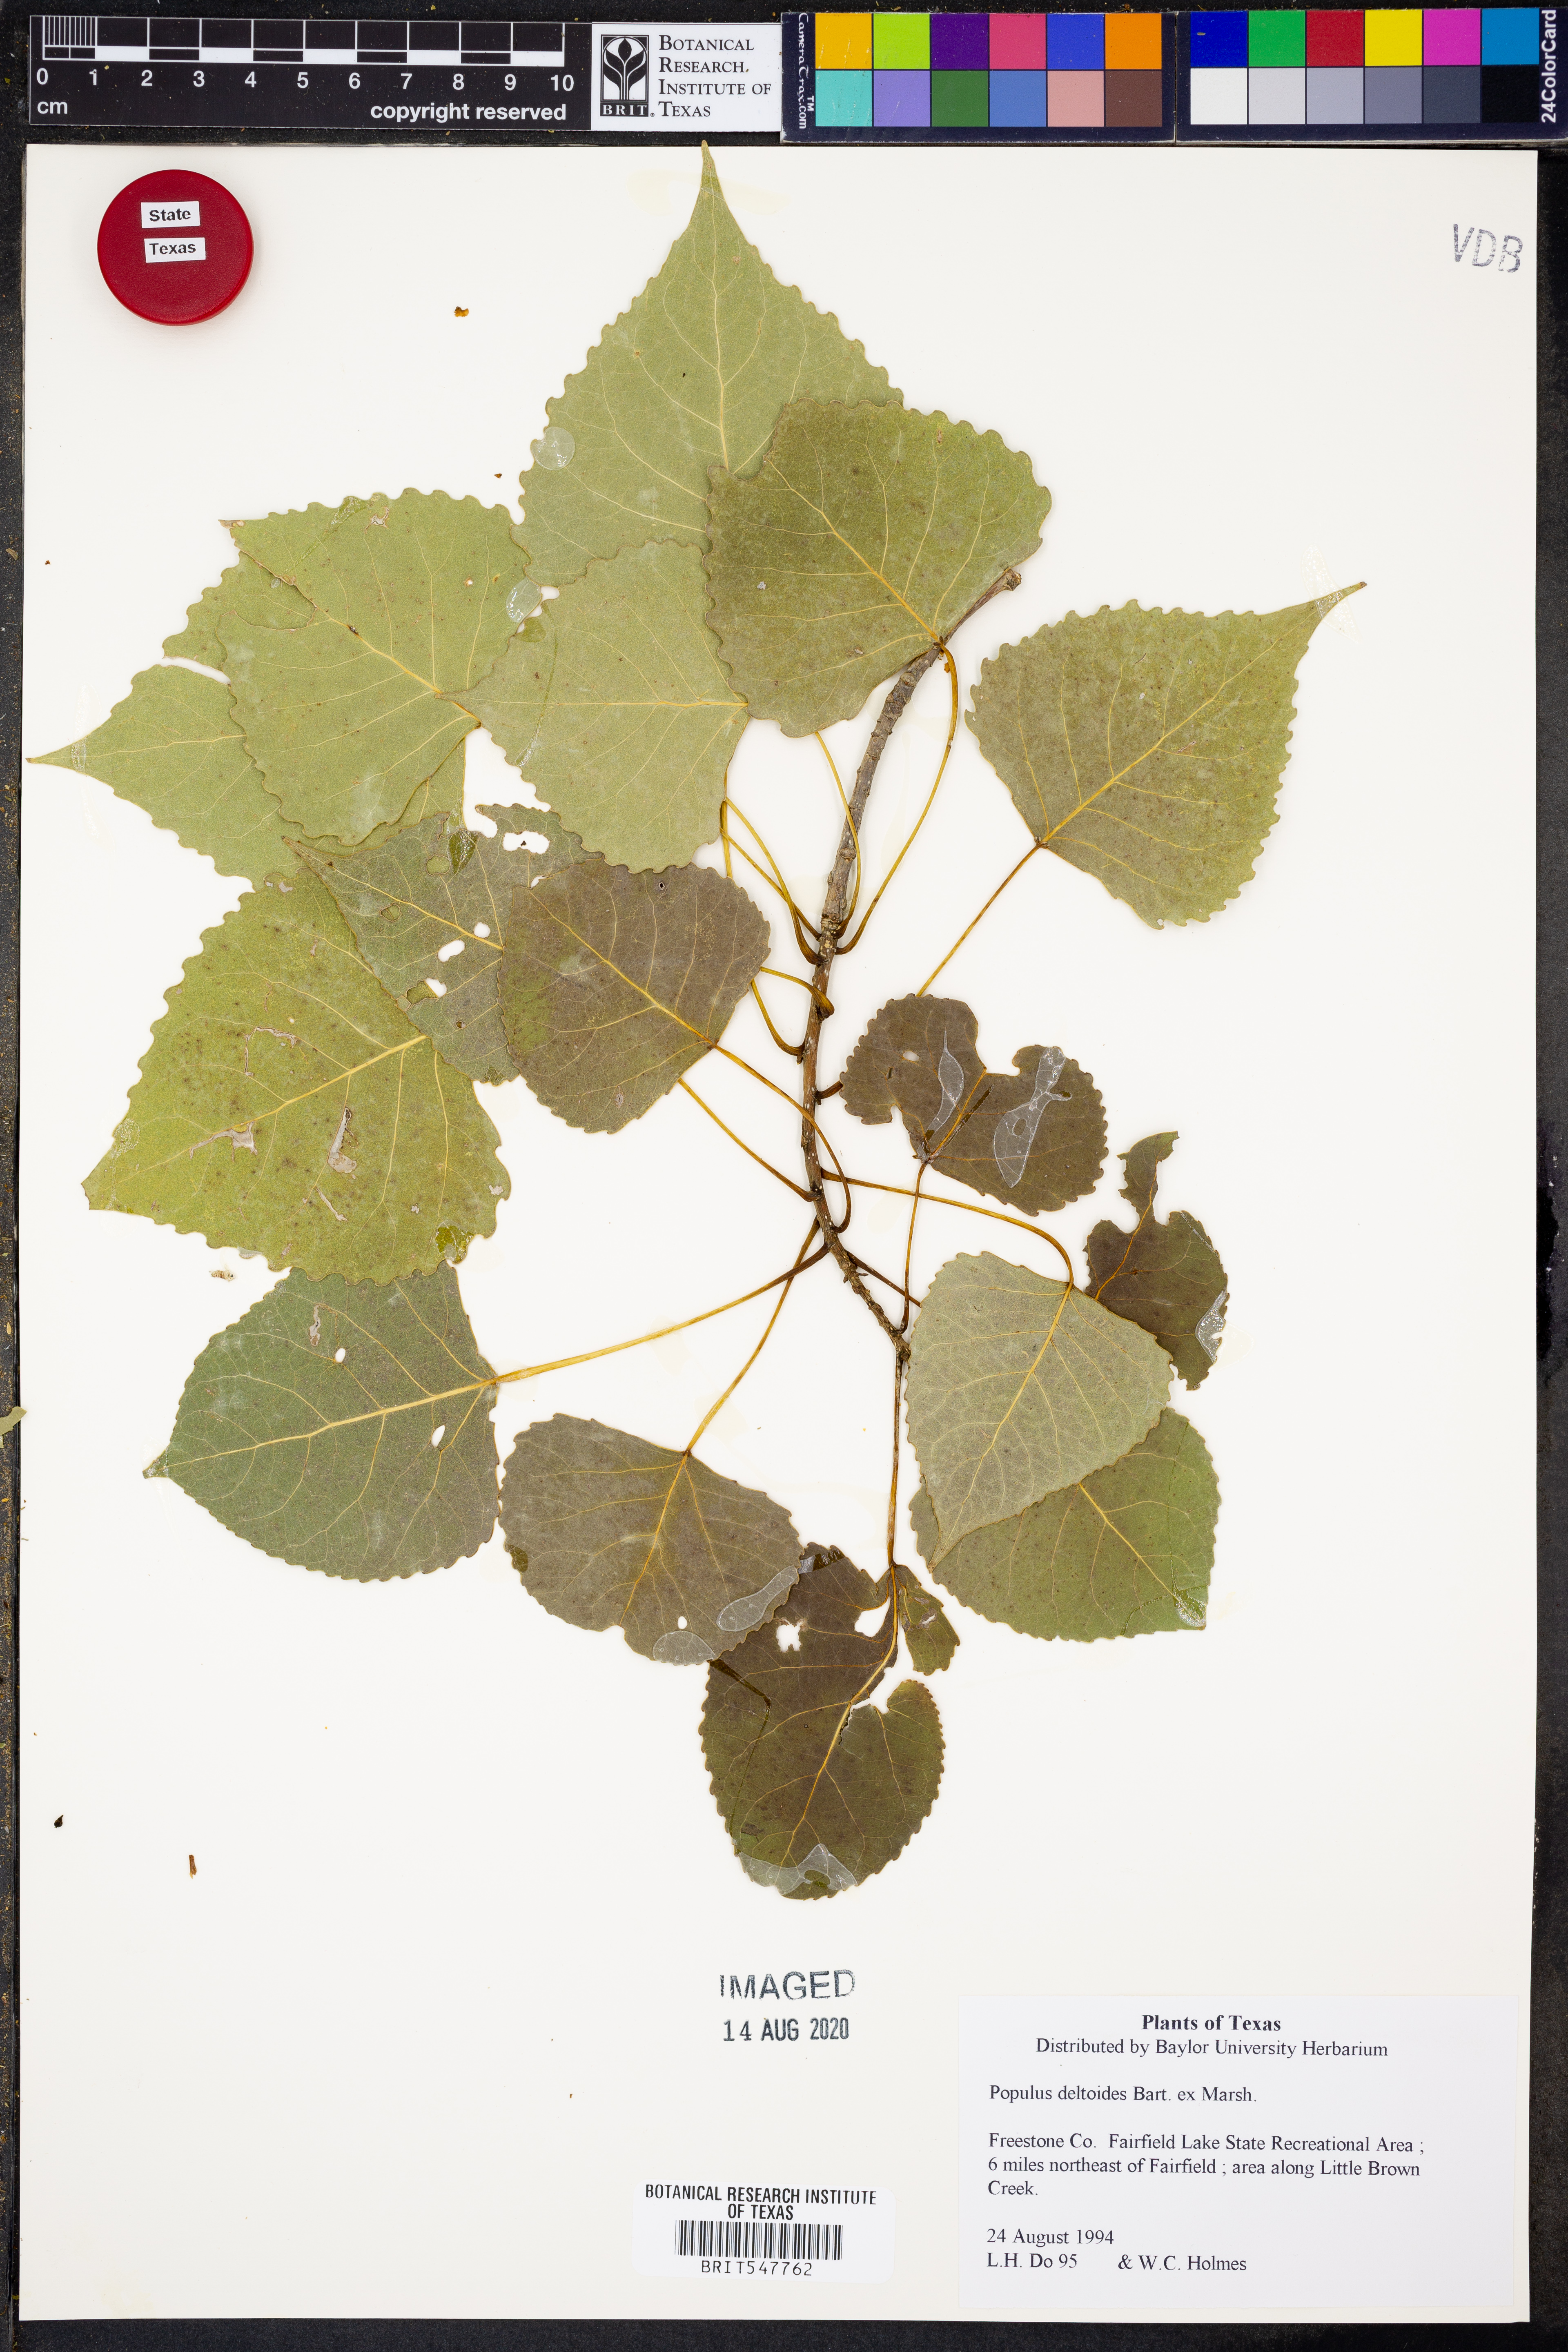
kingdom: Plantae
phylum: Tracheophyta
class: Magnoliopsida
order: Malpighiales
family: Salicaceae
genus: Populus
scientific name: Populus deltoides
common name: Eastern cottonwood
